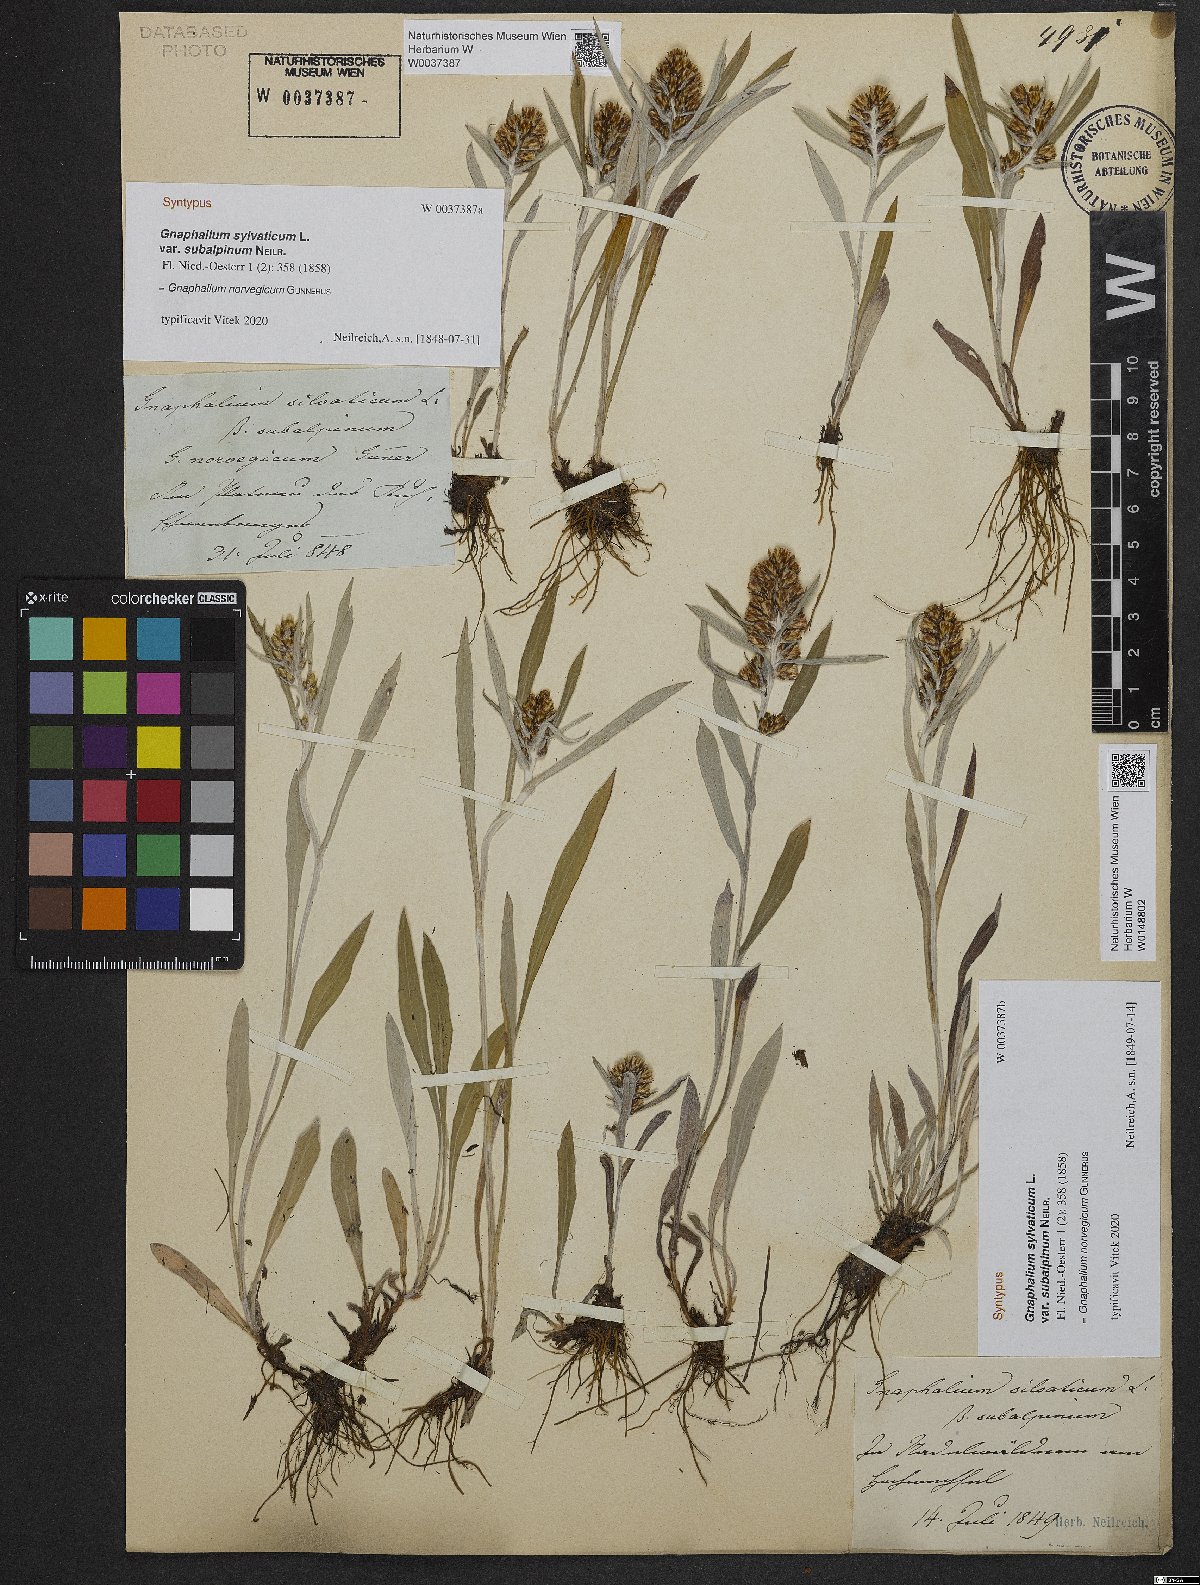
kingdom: Plantae
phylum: Tracheophyta
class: Magnoliopsida
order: Asterales
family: Asteraceae
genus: Omalotheca
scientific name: Omalotheca norvegica
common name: Norwegian arctic-cudweed
